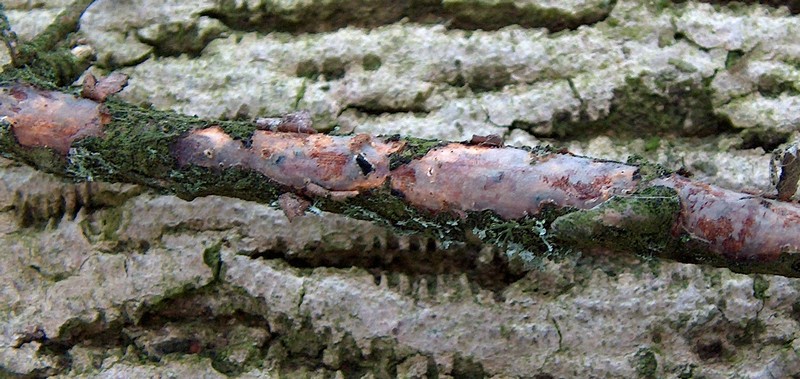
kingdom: Fungi
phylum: Basidiomycota
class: Agaricomycetes
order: Corticiales
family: Vuilleminiaceae
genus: Vuilleminia
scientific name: Vuilleminia comedens
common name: almindelig barksprænger
